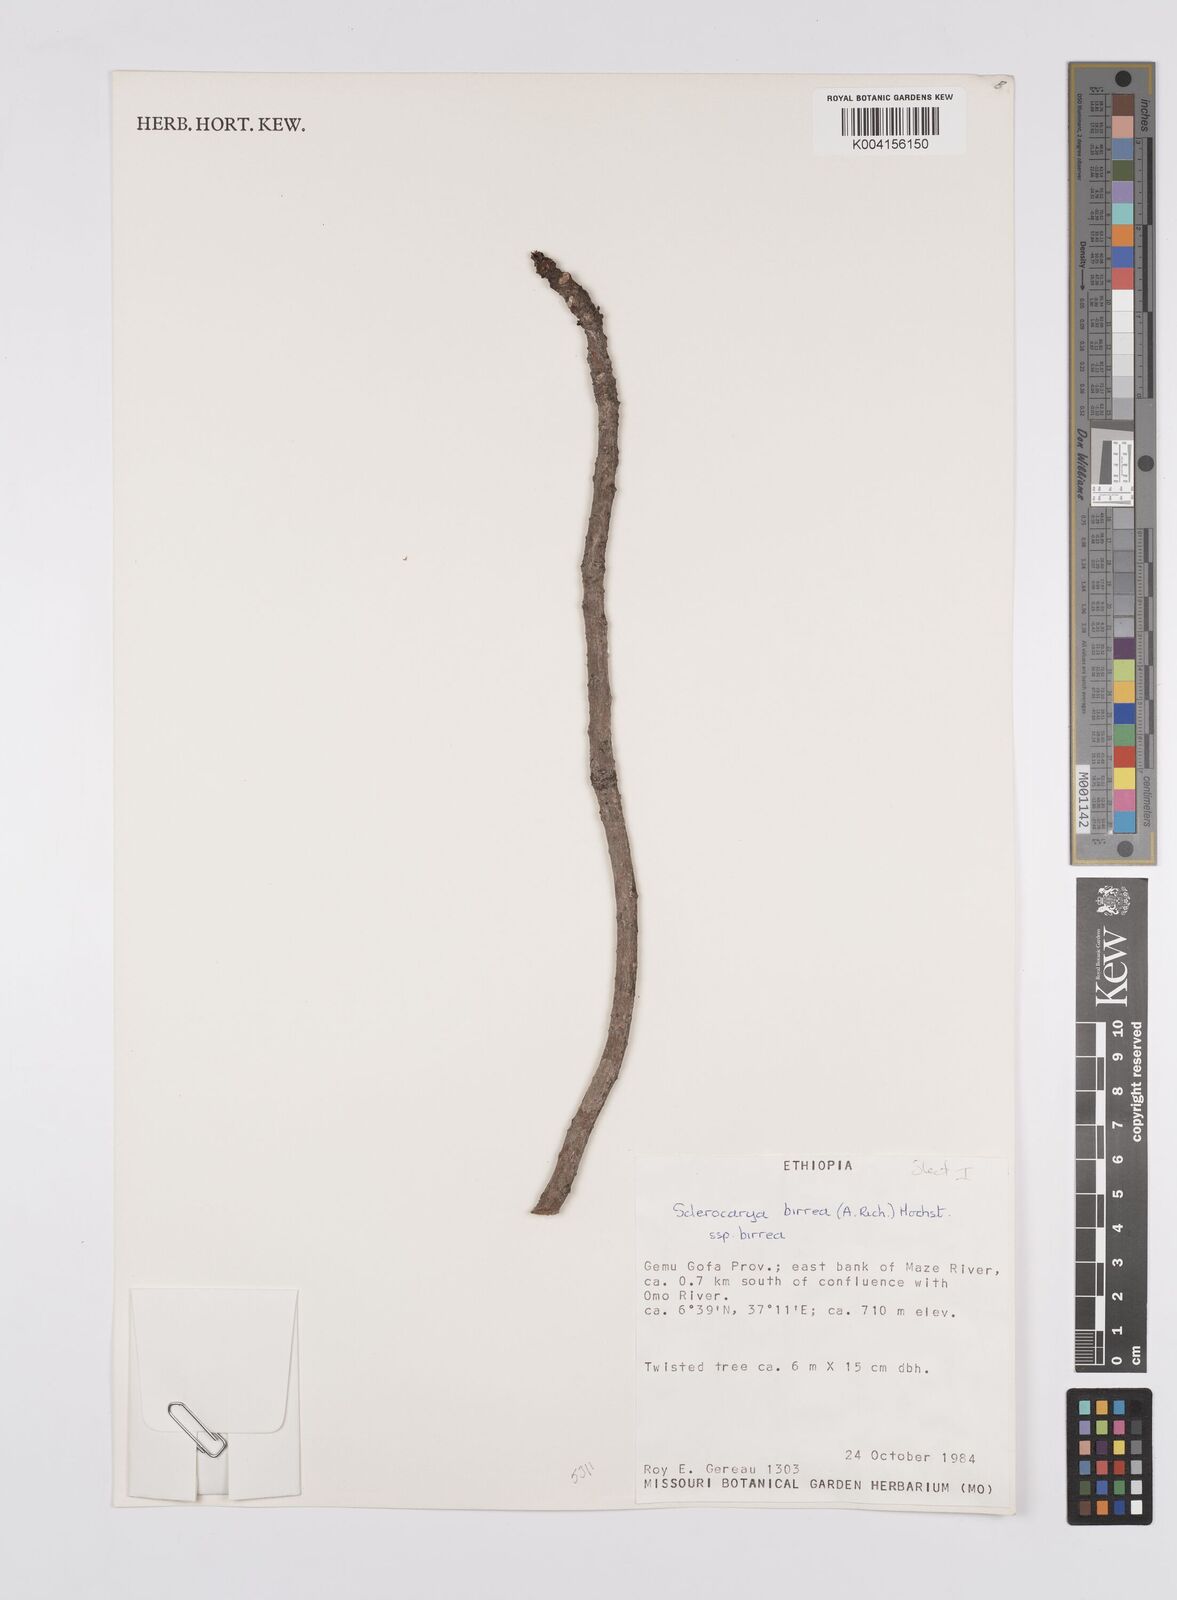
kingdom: Plantae
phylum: Tracheophyta
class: Magnoliopsida
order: Sapindales
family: Anacardiaceae
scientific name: Anacardiaceae
